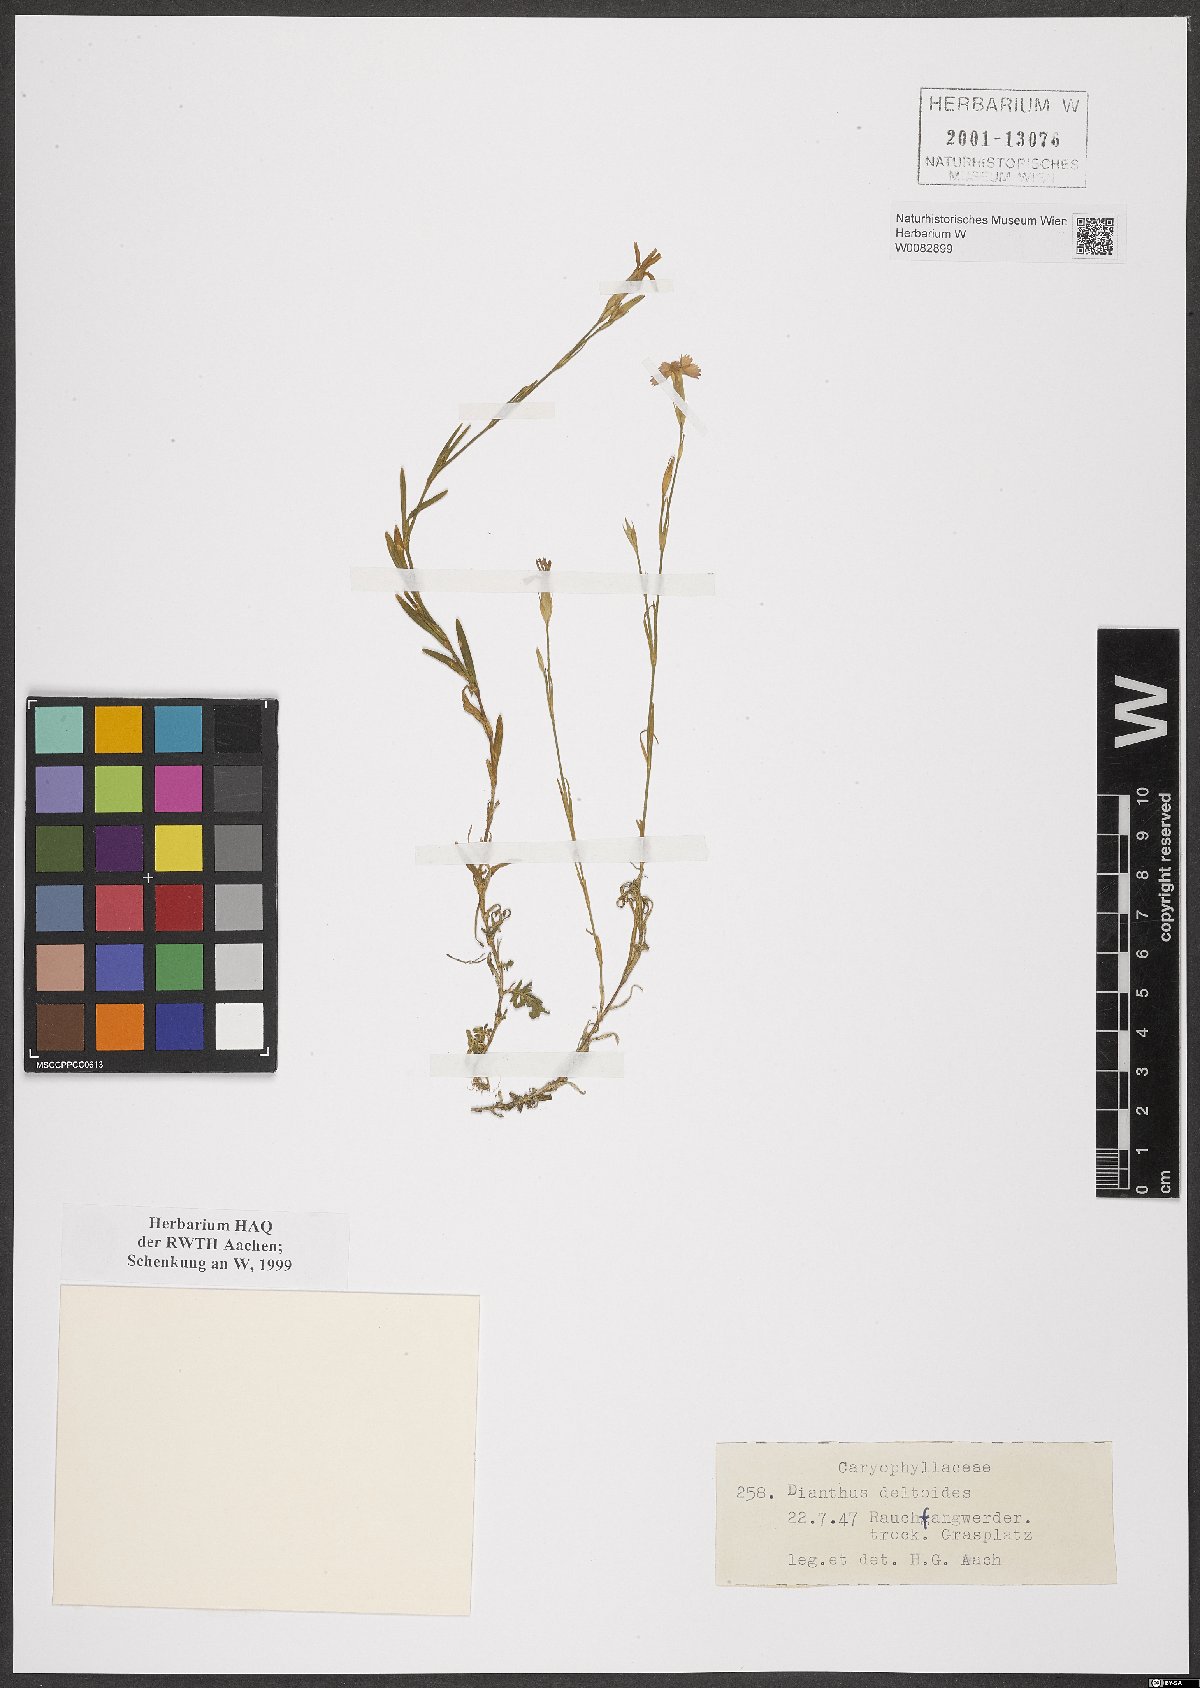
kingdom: Plantae
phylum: Tracheophyta
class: Magnoliopsida
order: Caryophyllales
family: Caryophyllaceae
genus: Dianthus
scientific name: Dianthus deltoides
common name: Maiden pink
